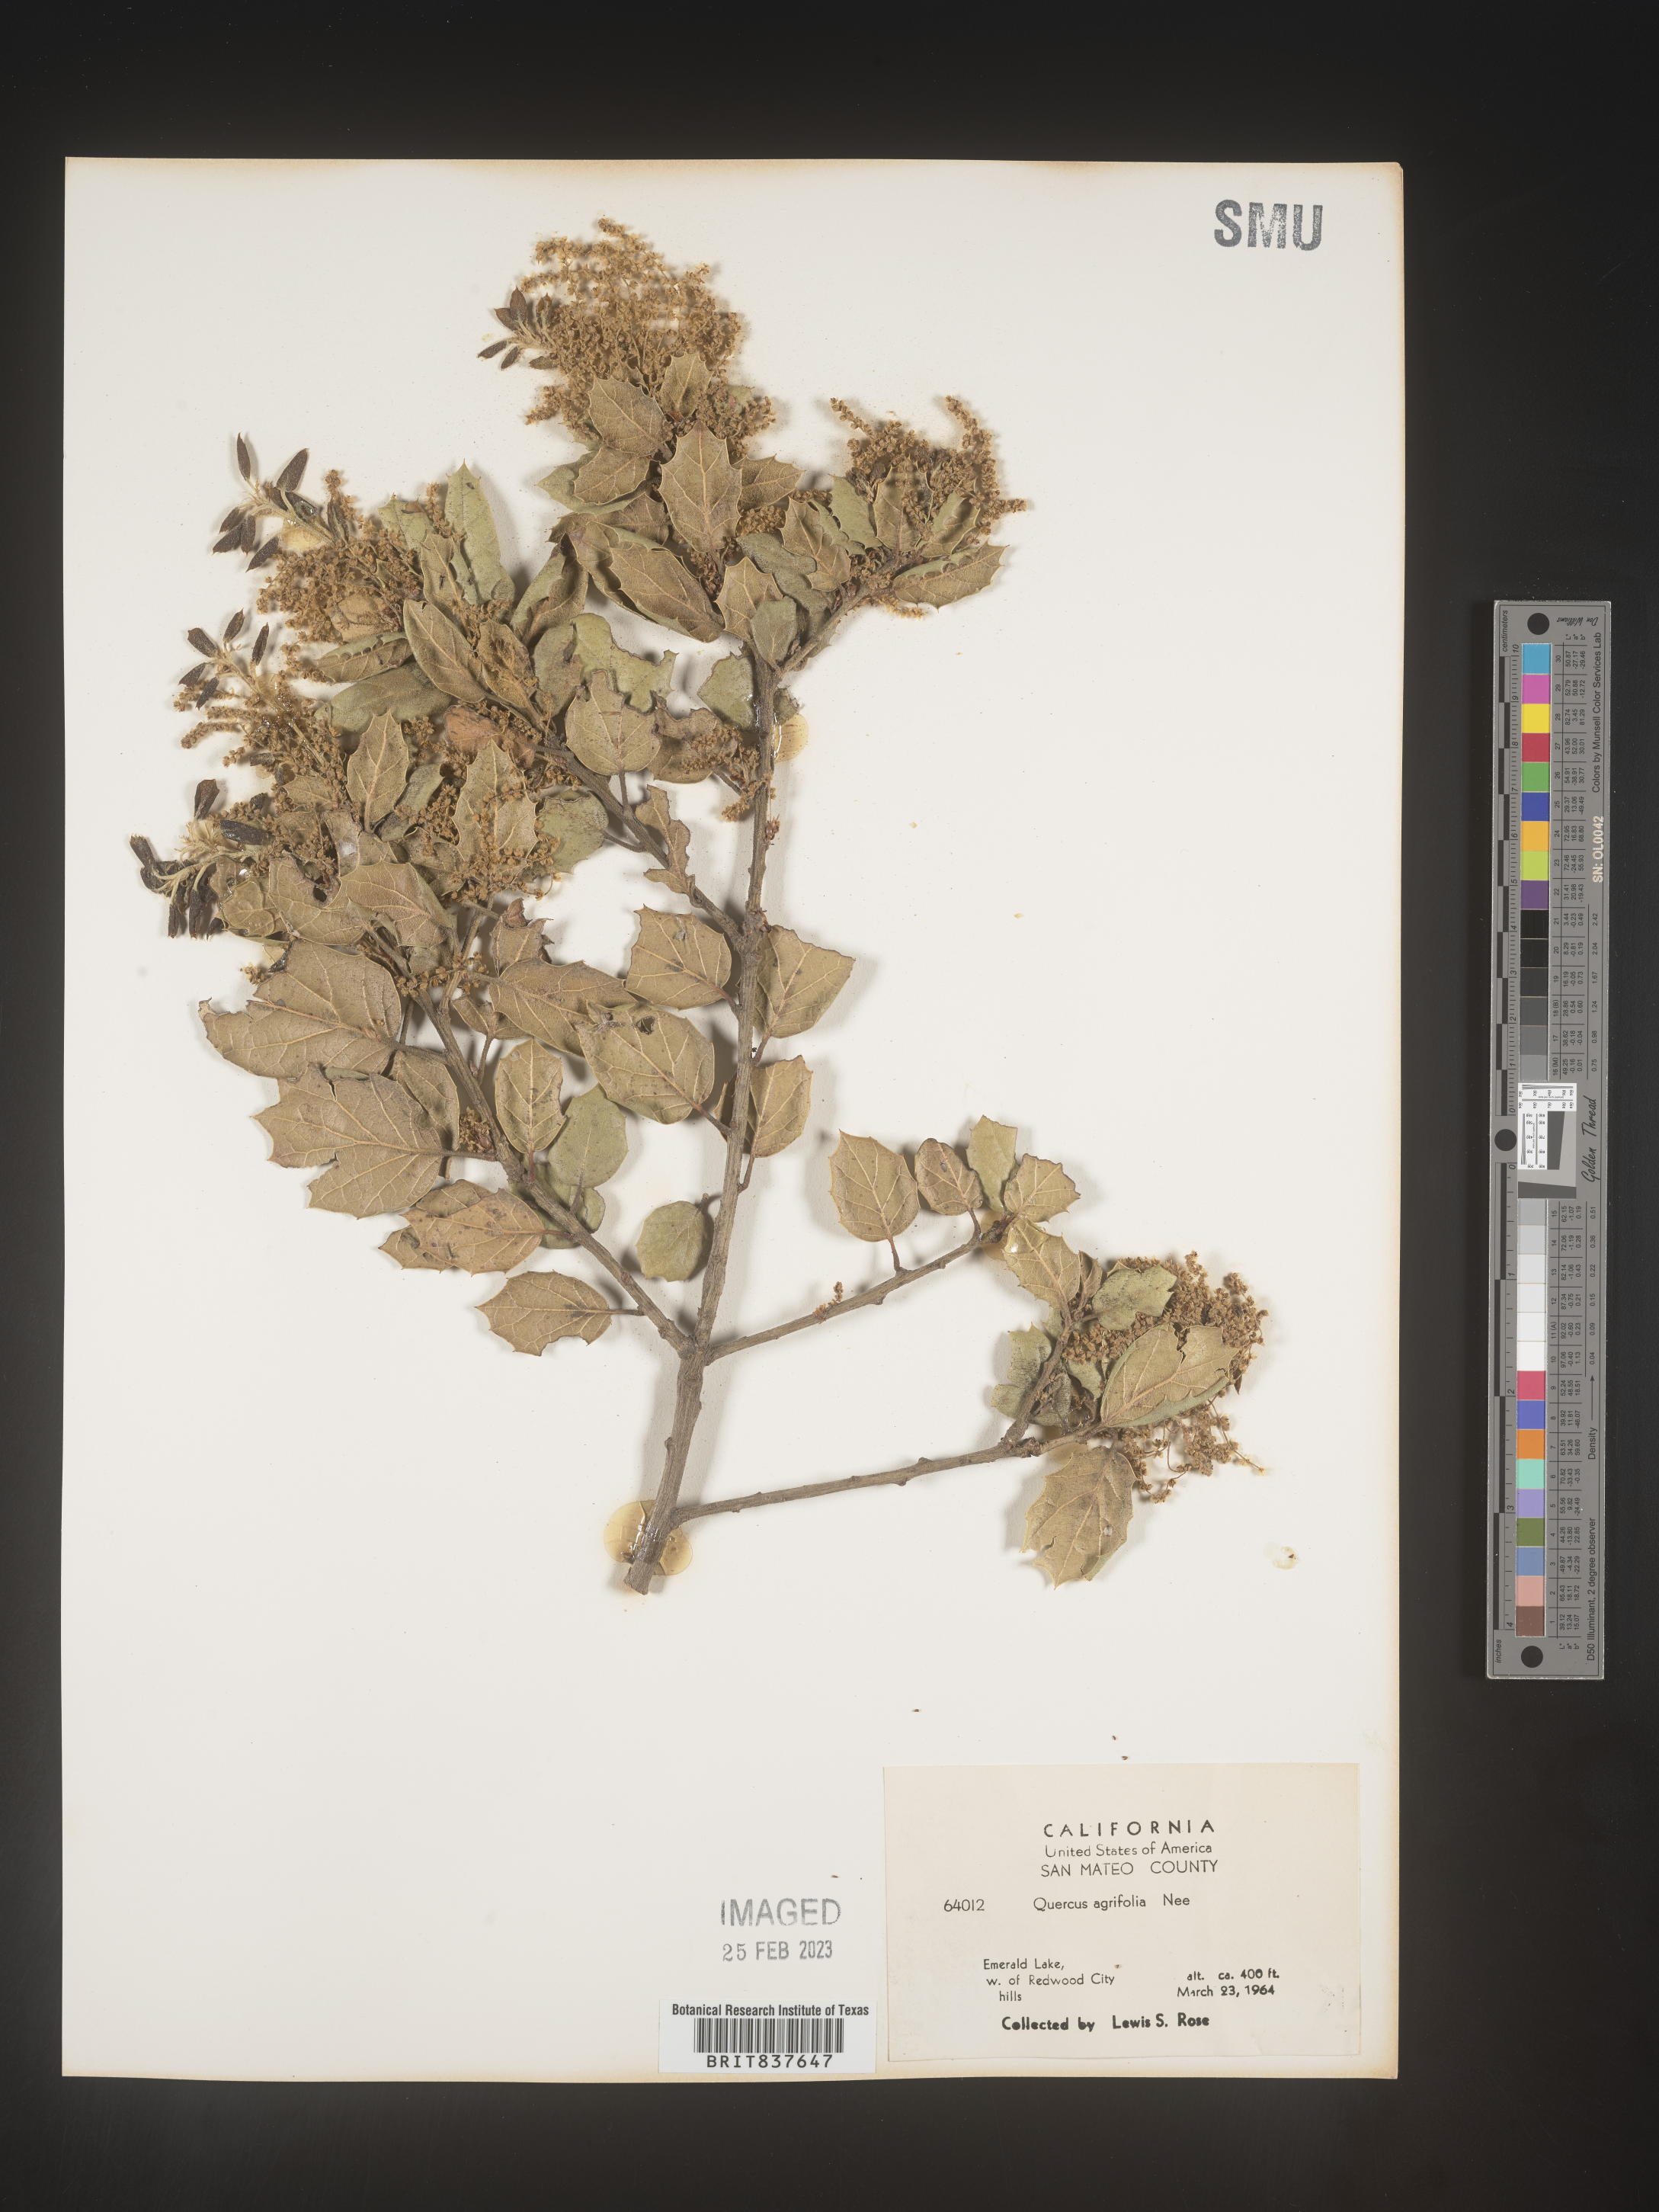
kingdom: Plantae
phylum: Tracheophyta
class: Magnoliopsida
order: Fagales
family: Fagaceae
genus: Quercus
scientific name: Quercus agrifolia
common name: California live oak
